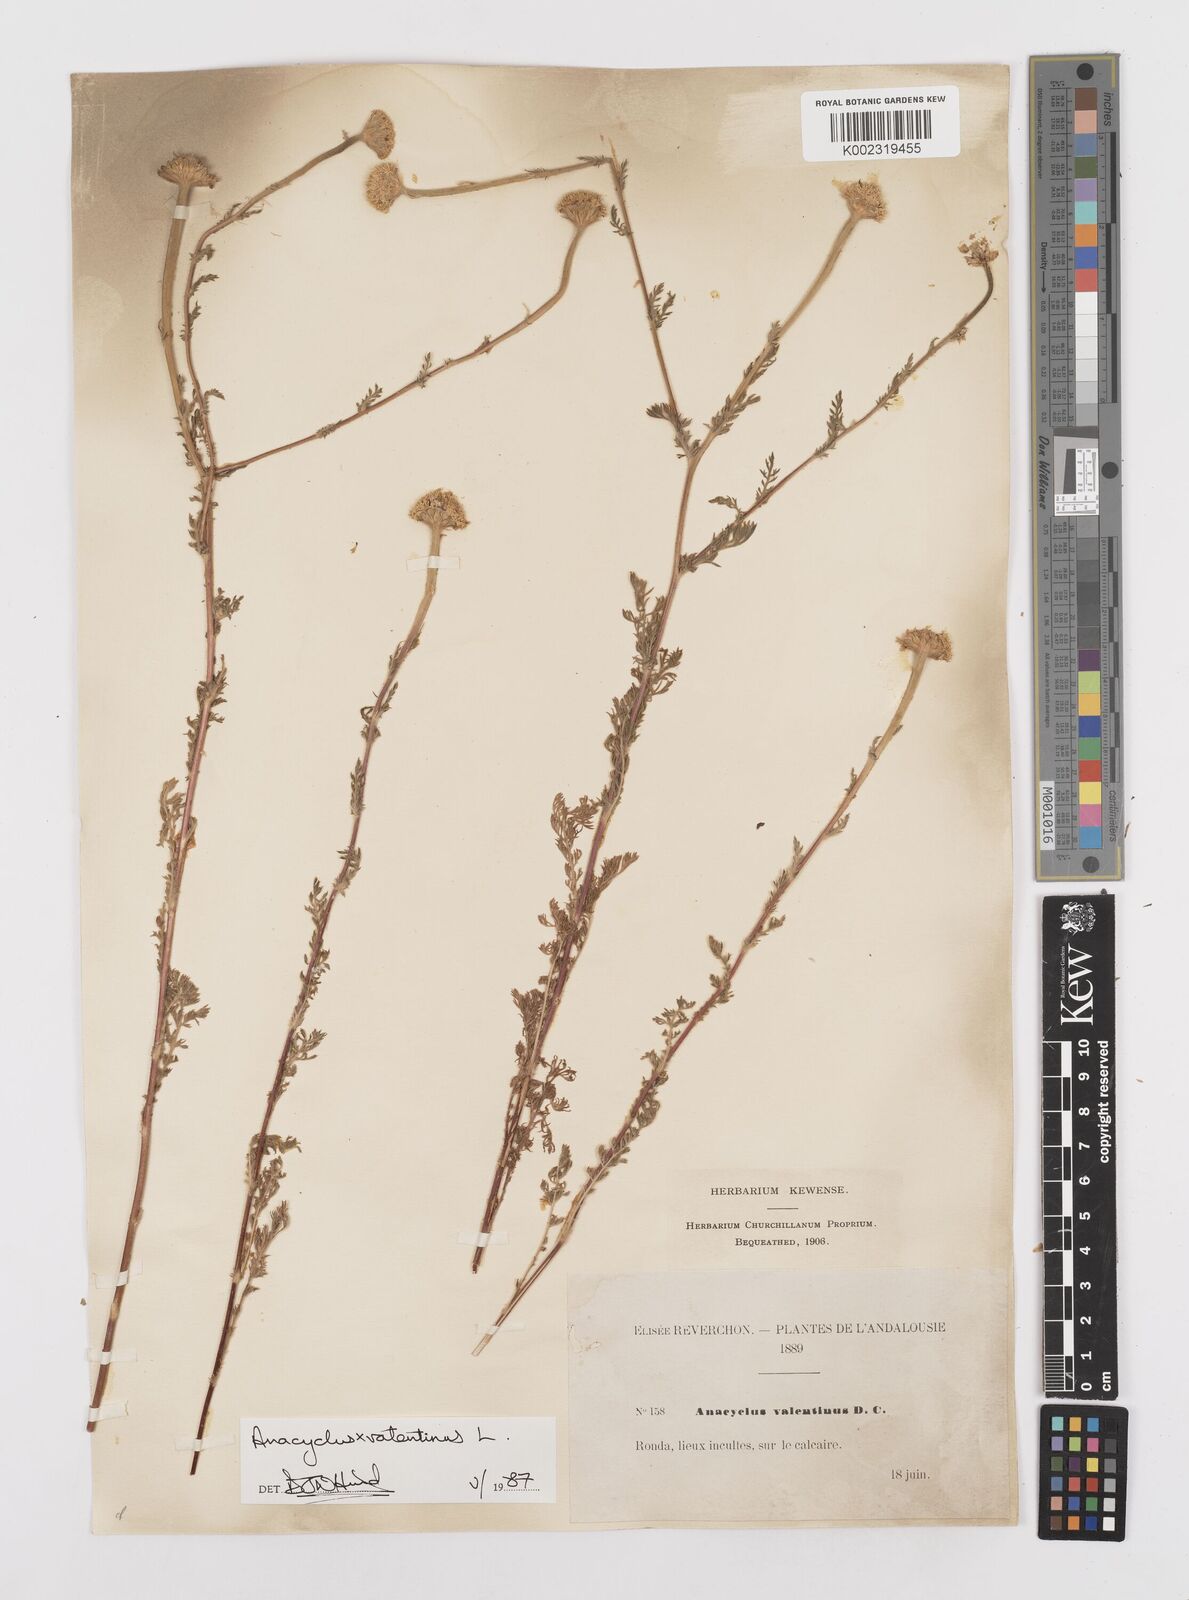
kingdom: Plantae
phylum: Tracheophyta
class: Magnoliopsida
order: Asterales
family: Asteraceae
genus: Anacyclus
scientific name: Anacyclus valentinus
